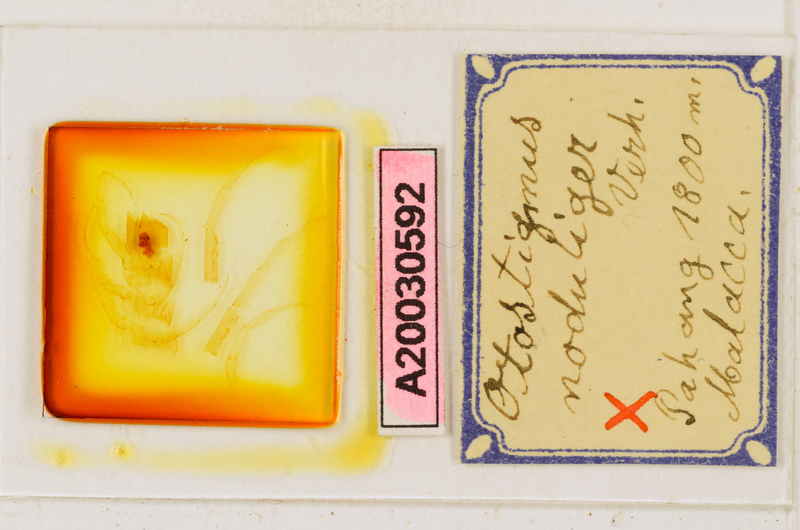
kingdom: Animalia
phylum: Arthropoda
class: Chilopoda
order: Scolopendromorpha
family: Scolopendridae
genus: Otostigmus
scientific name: Otostigmus noduliger
